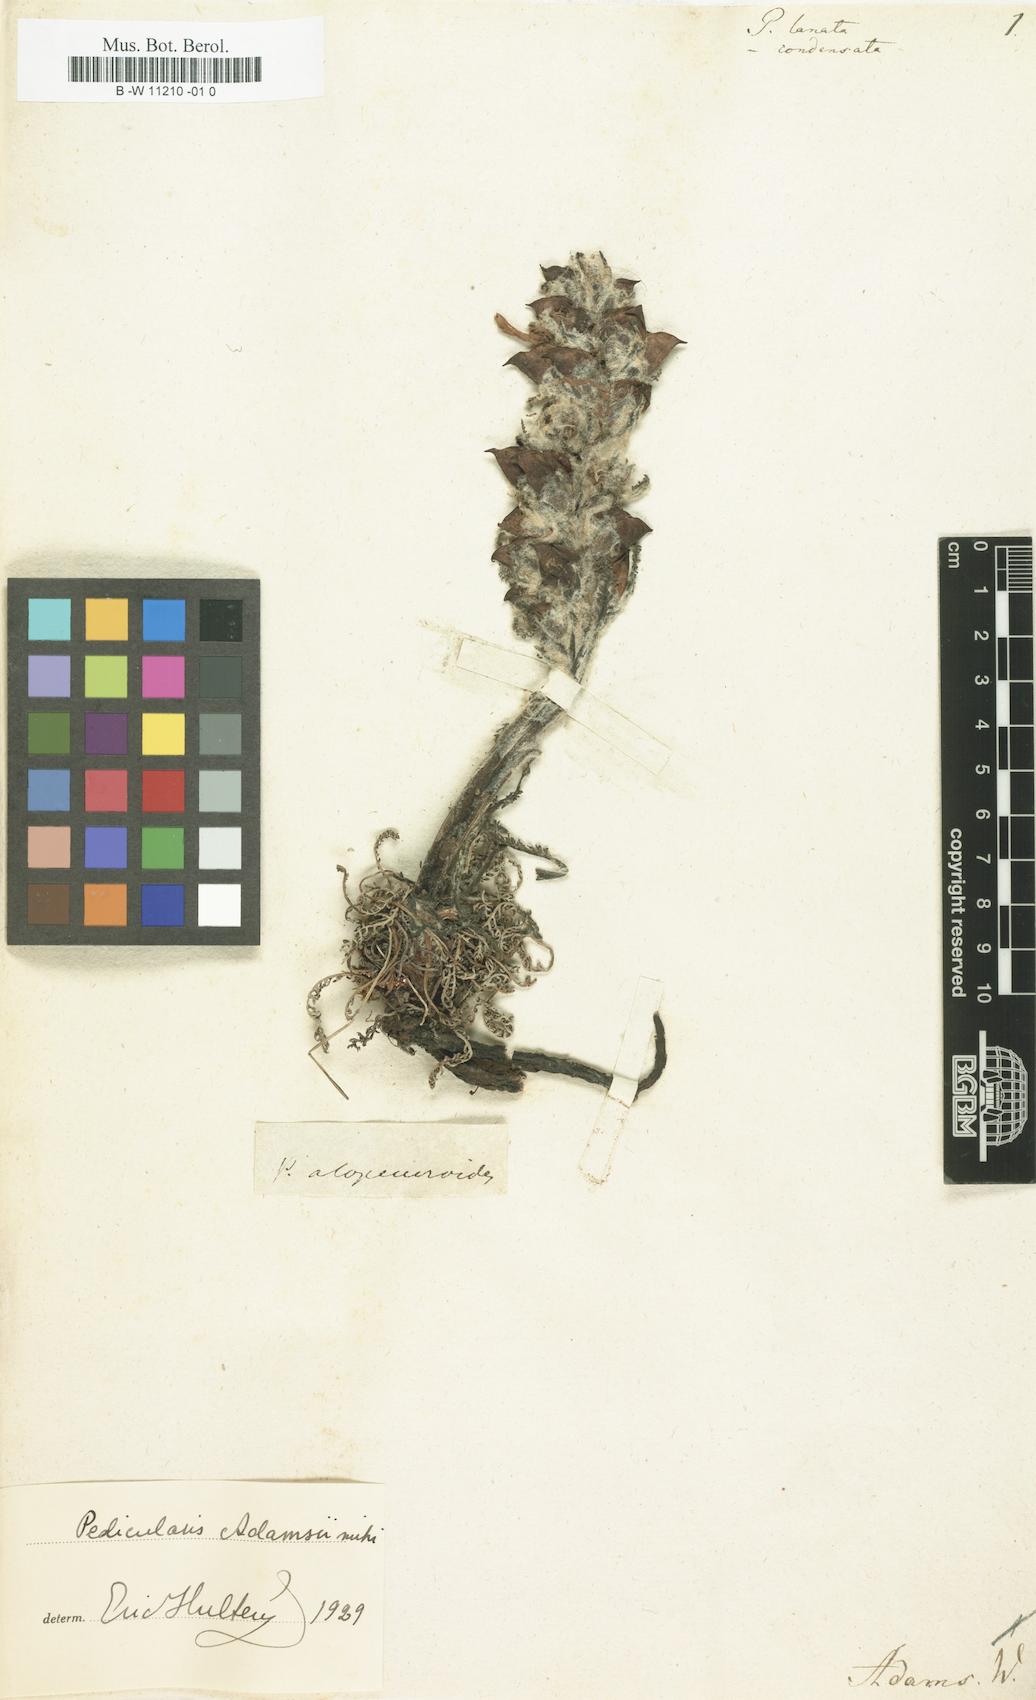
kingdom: Plantae
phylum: Tracheophyta
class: Magnoliopsida
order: Lamiales
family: Orobanchaceae
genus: Pedicularis
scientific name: Pedicularis lanata
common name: Woolly lousewort
